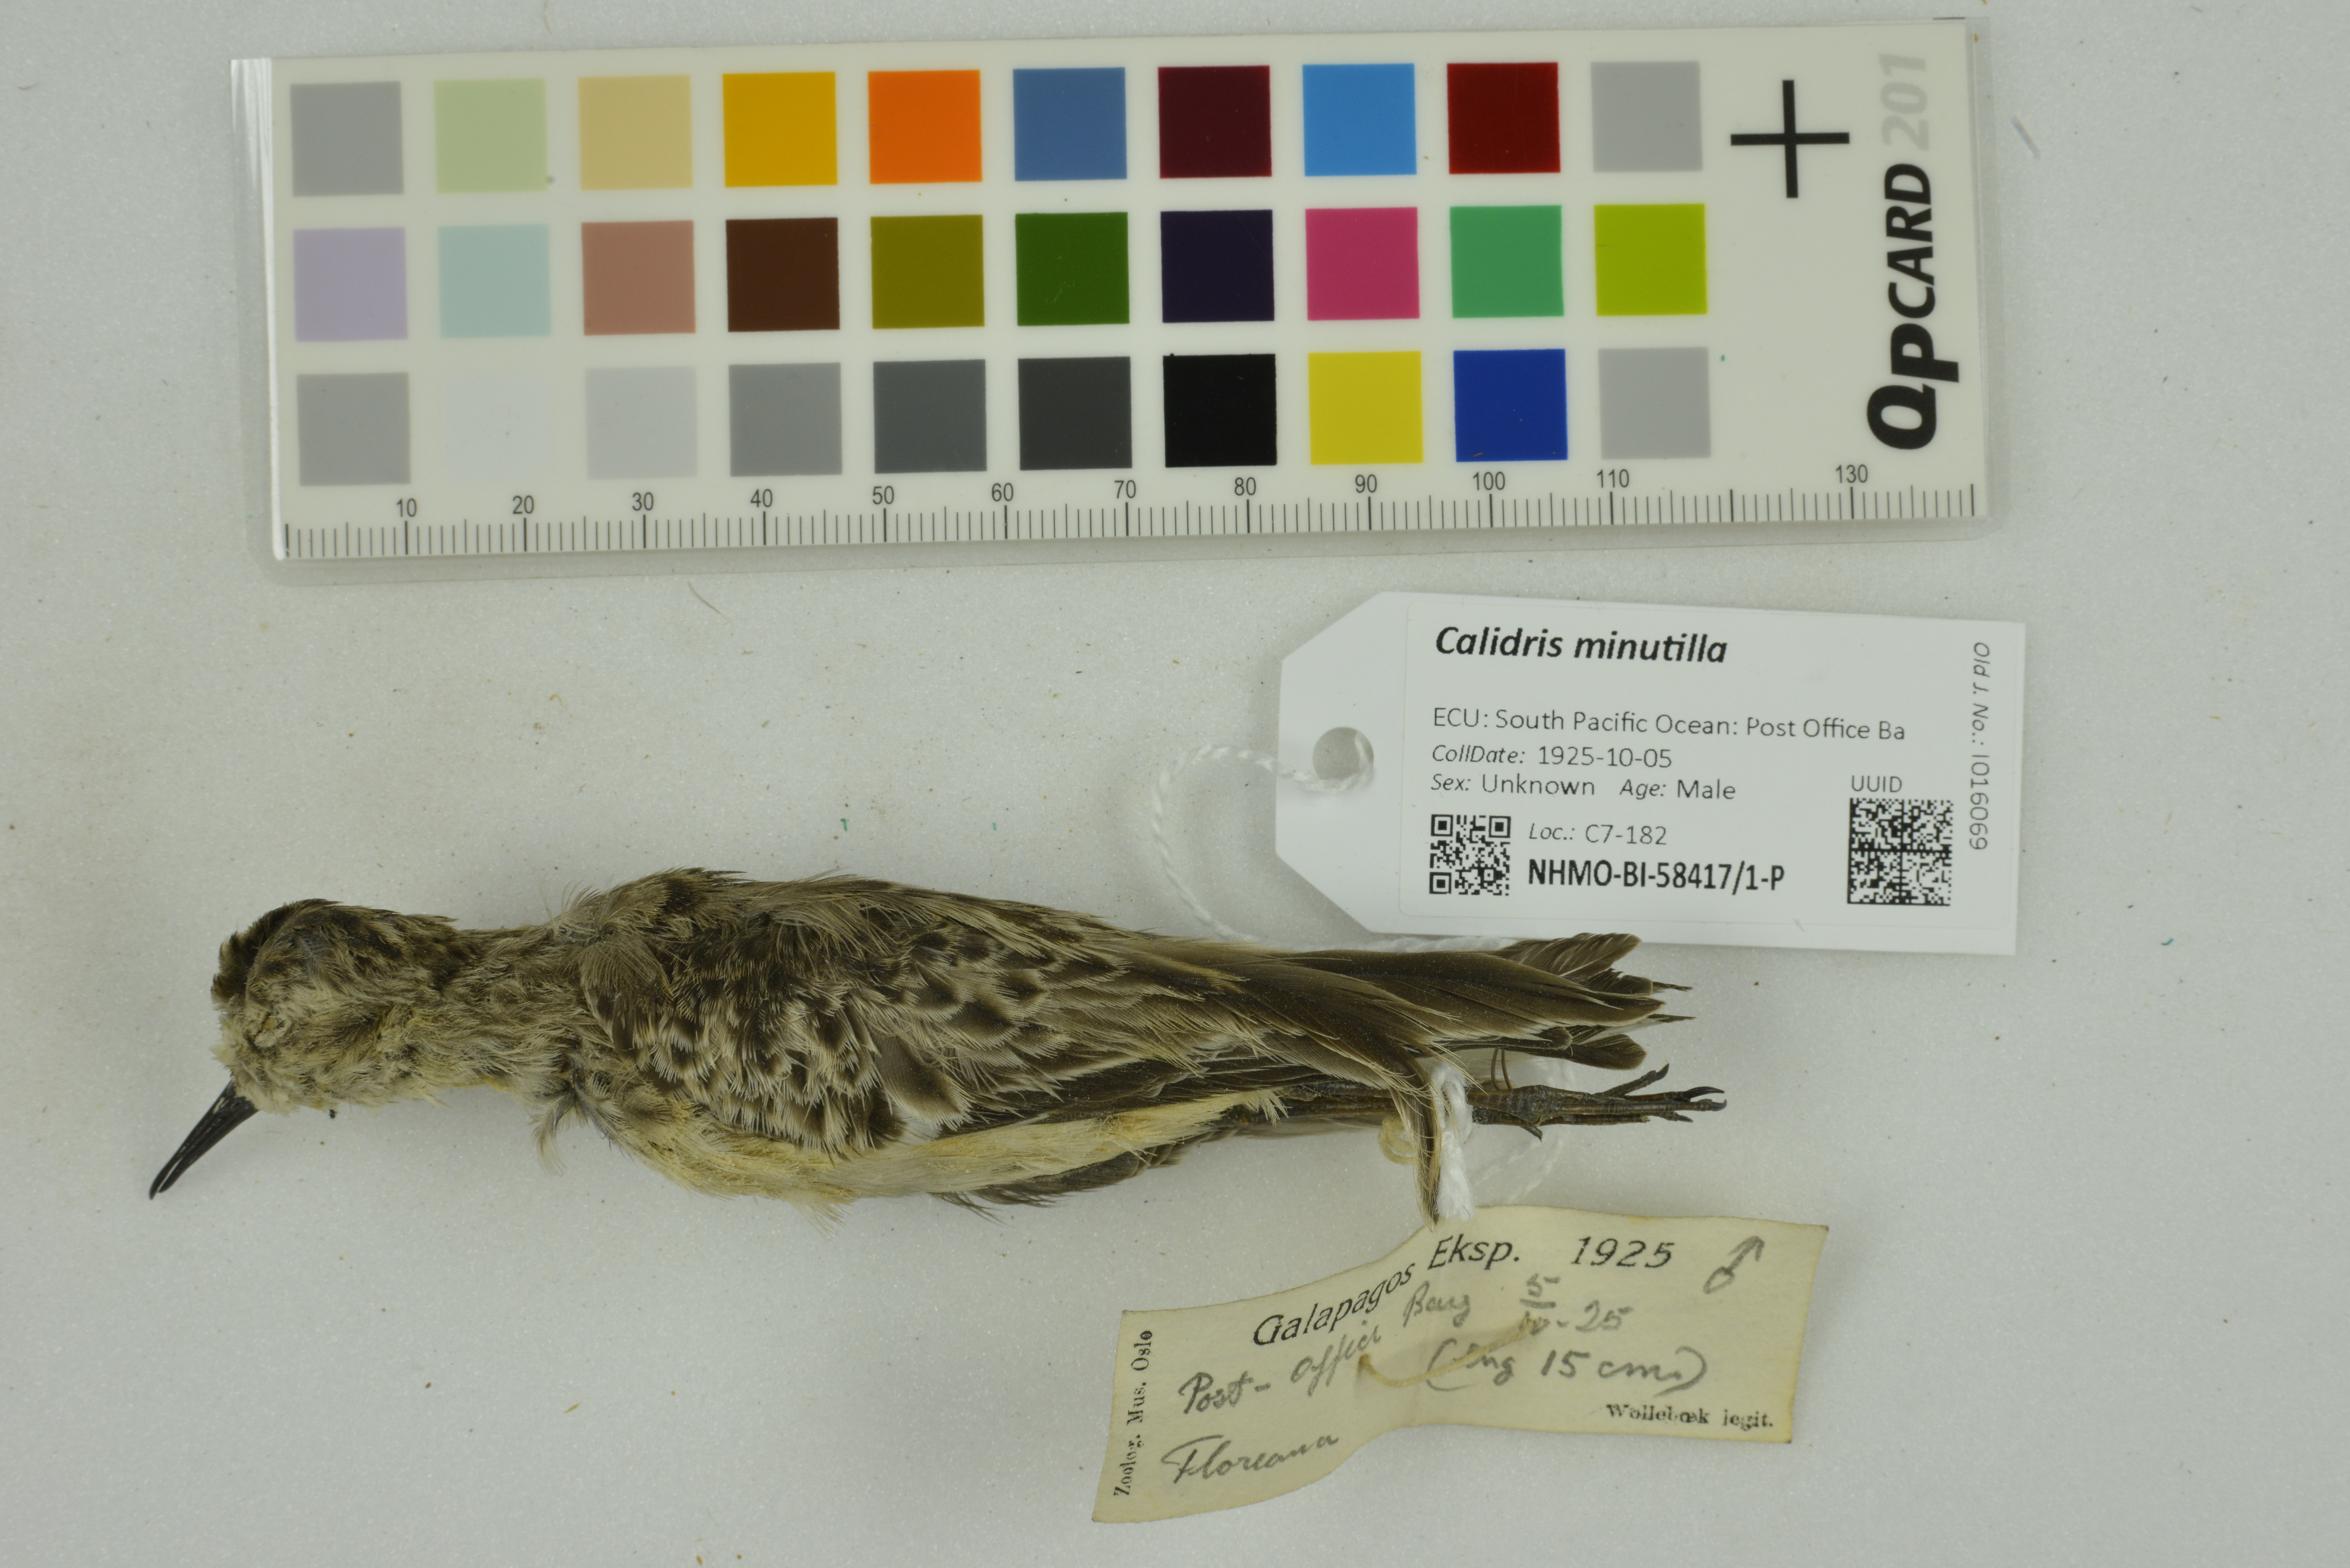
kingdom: Animalia
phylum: Chordata
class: Aves
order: Charadriiformes
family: Scolopacidae
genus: Calidris
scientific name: Calidris minutilla
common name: Least sandpiper
